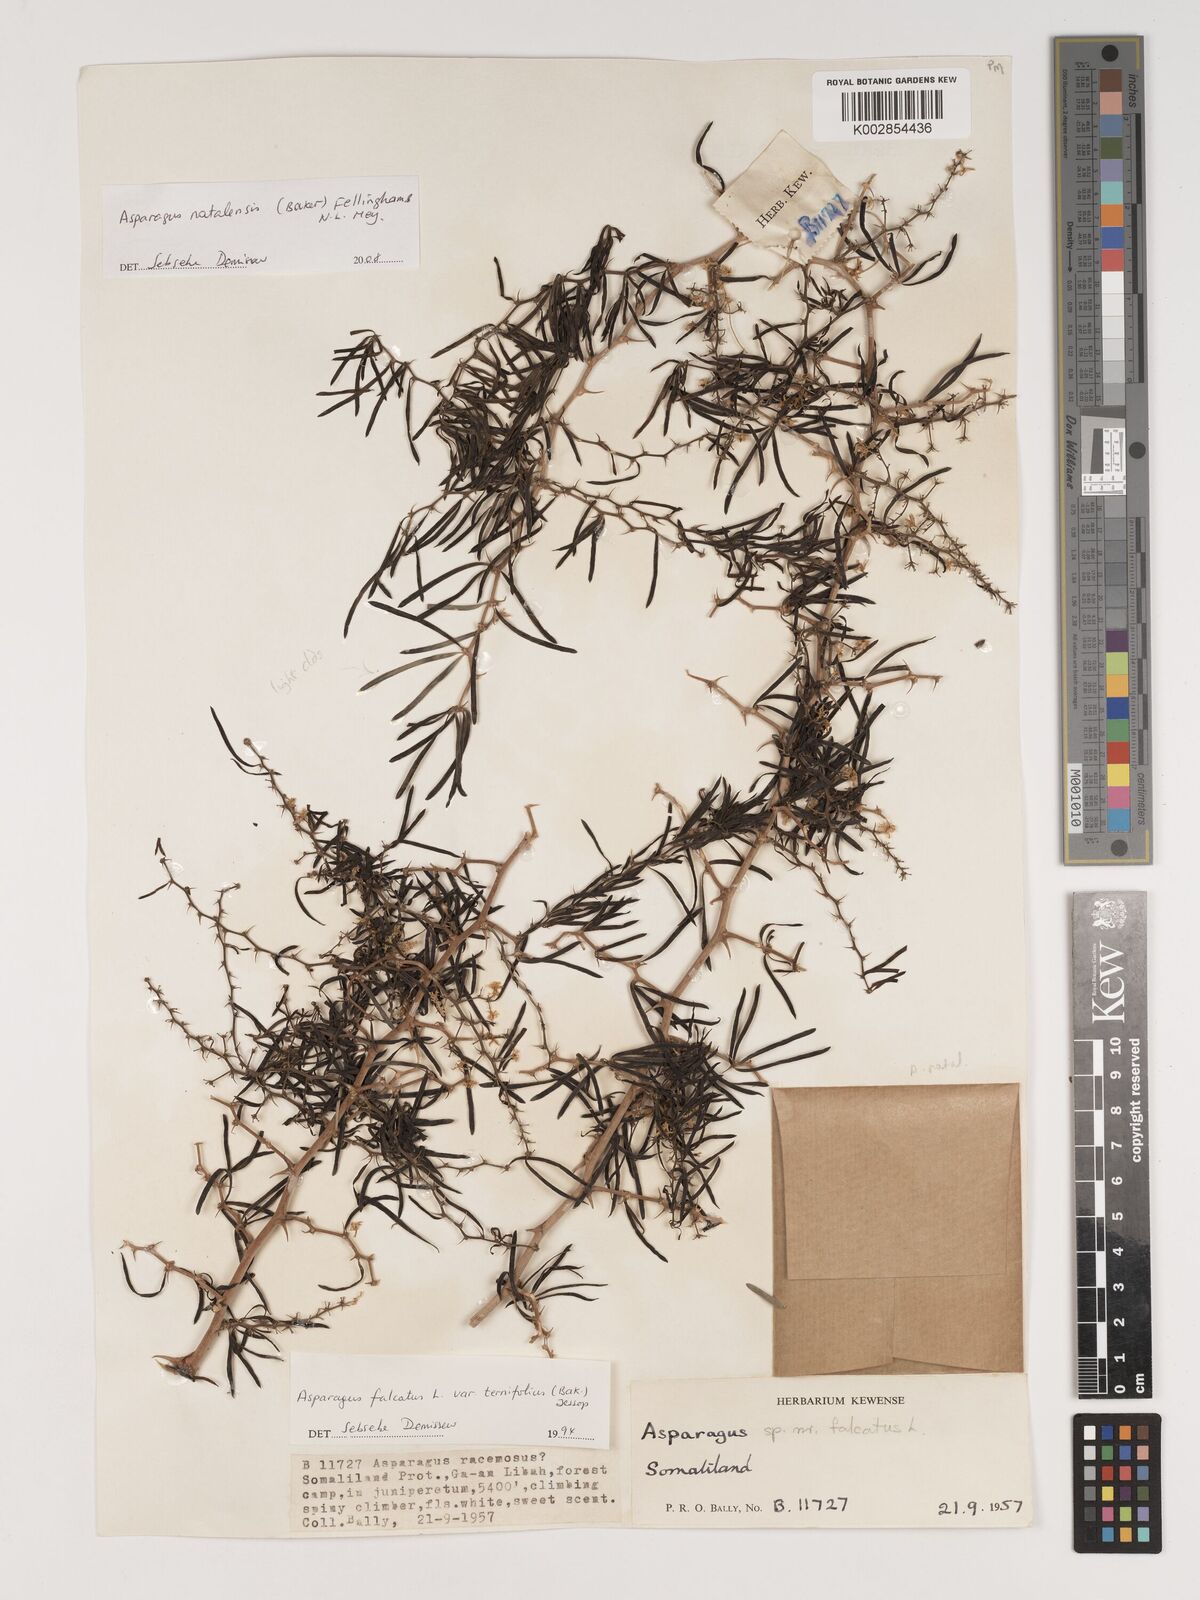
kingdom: Plantae
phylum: Tracheophyta
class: Liliopsida
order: Asparagales
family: Asparagaceae
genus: Asparagus
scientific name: Asparagus natalensis
